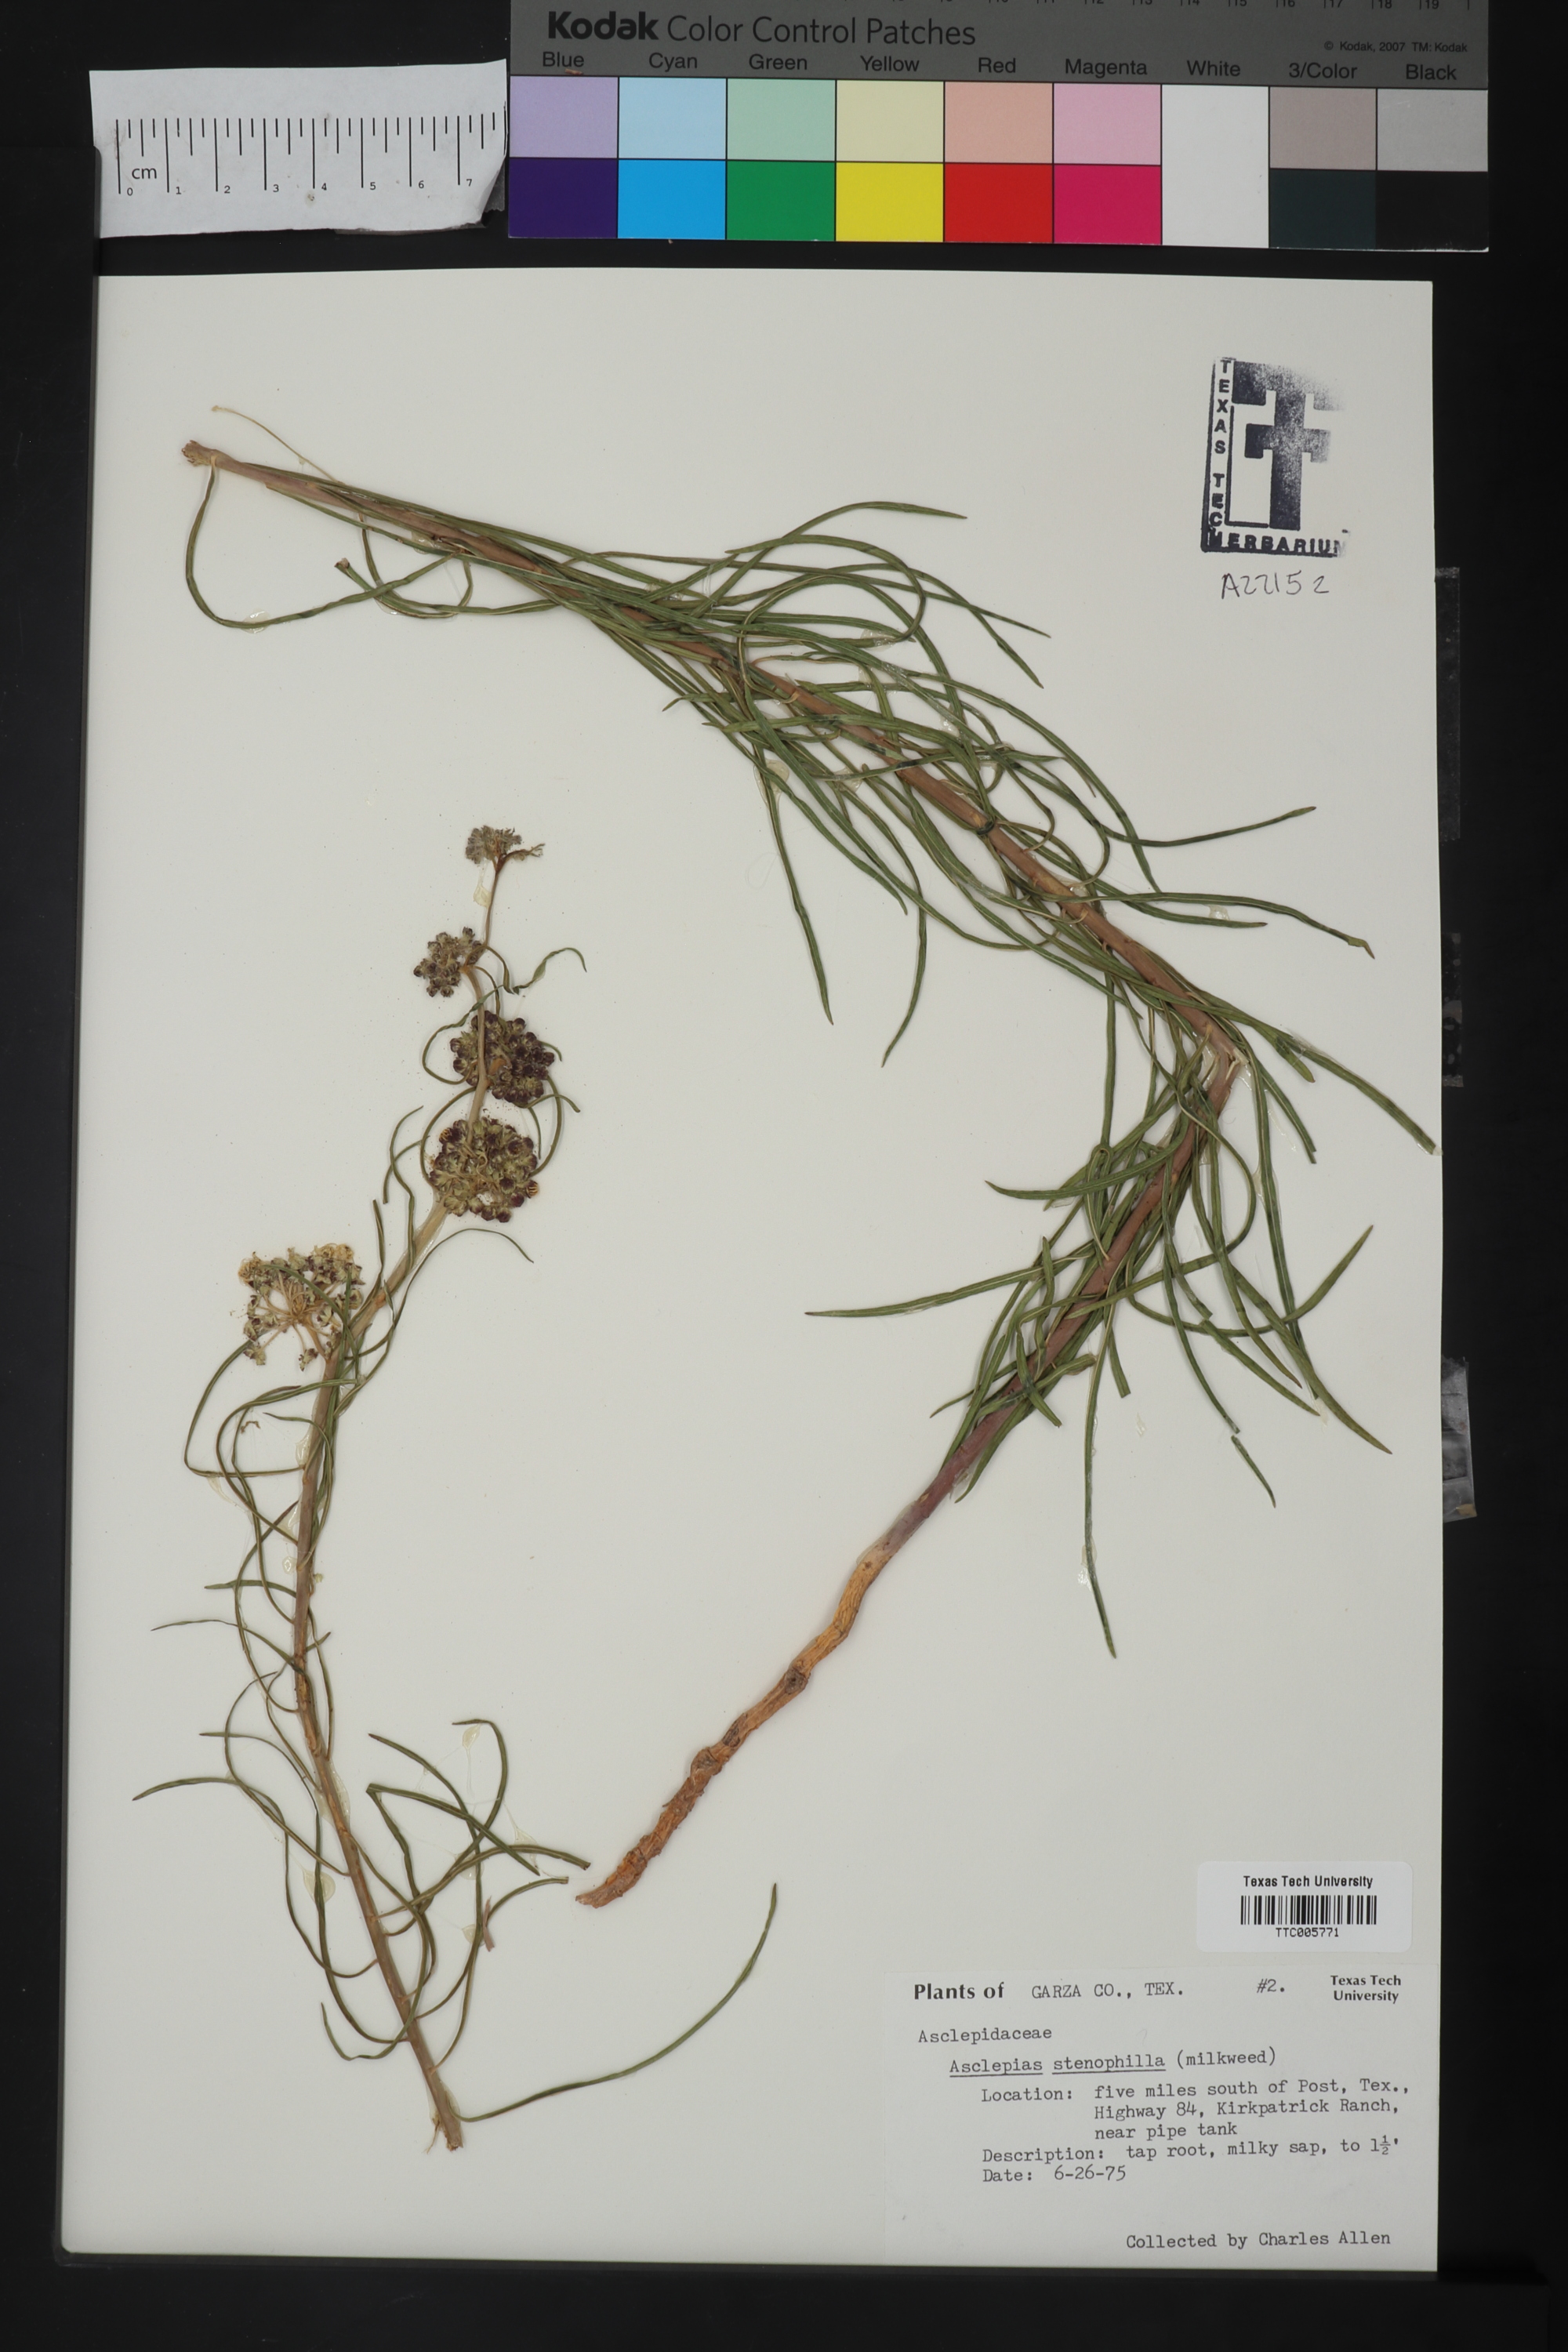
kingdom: Plantae
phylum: Tracheophyta
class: Magnoliopsida
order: Gentianales
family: Apocynaceae
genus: Asclepias
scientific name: Asclepias engelmanniana
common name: Engelmann's milkweed
